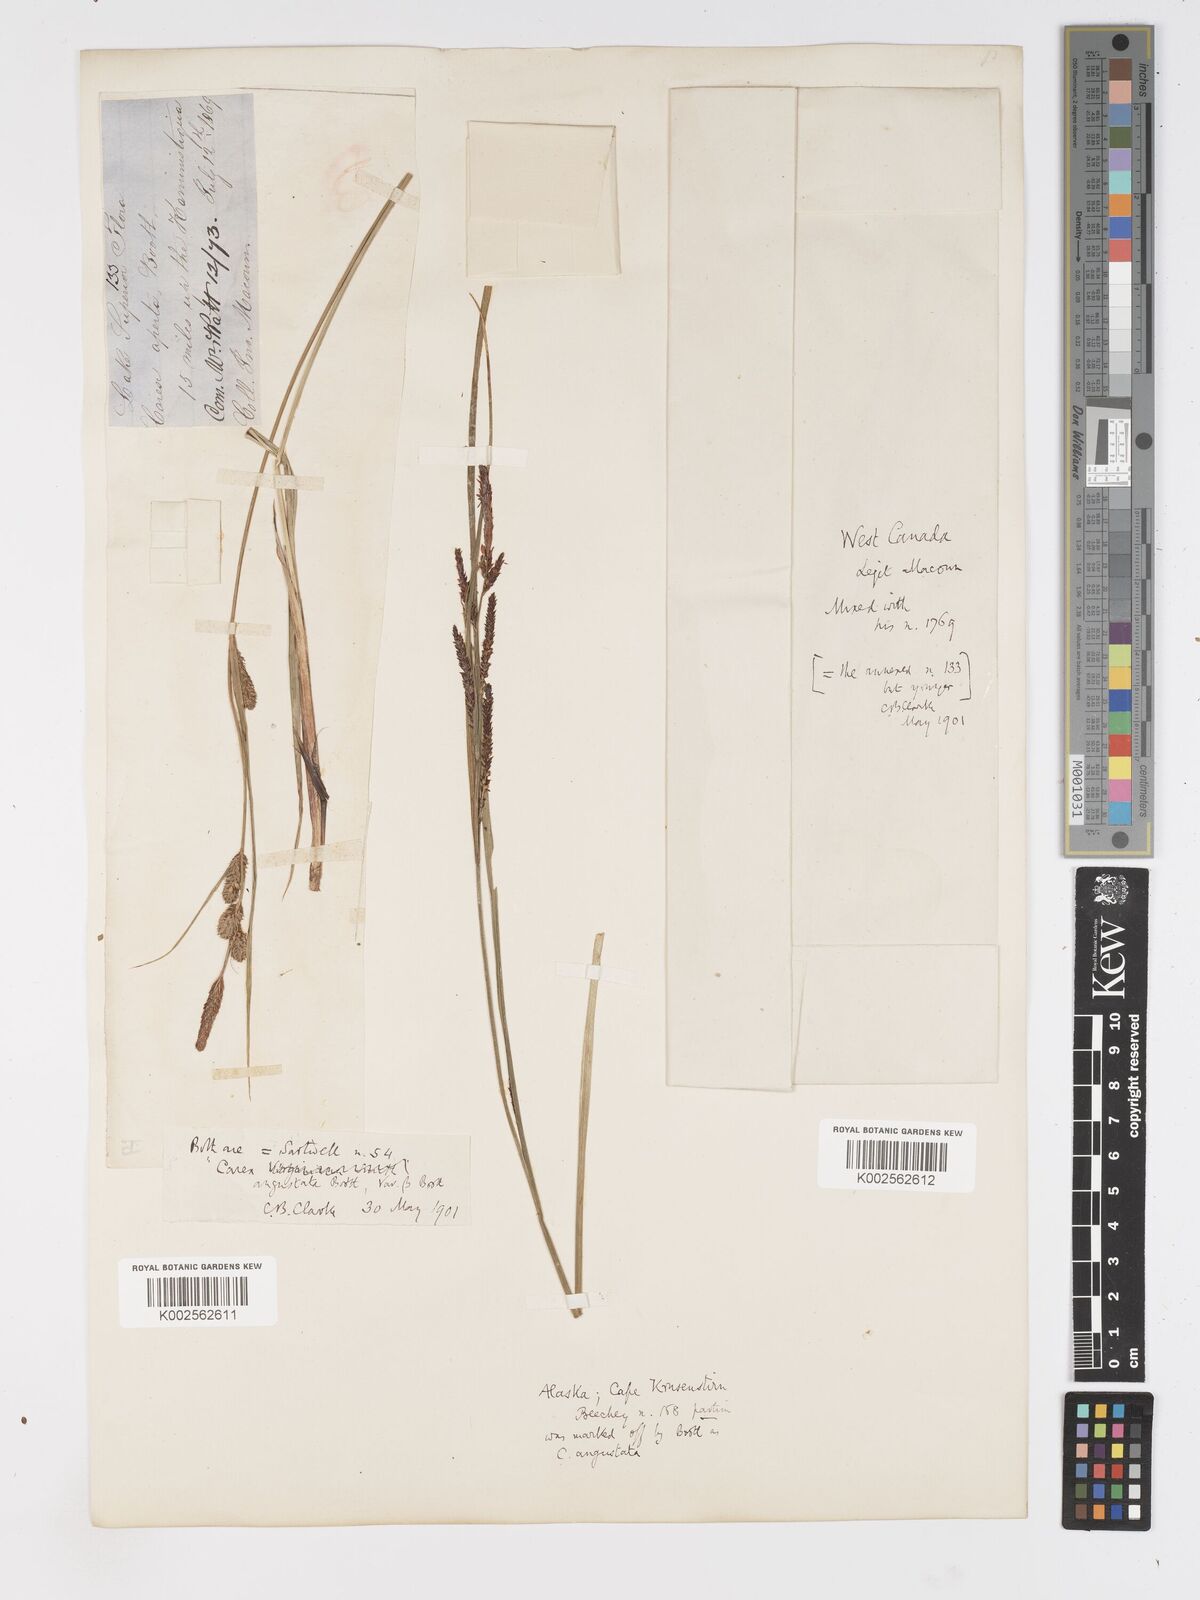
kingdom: Plantae
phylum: Tracheophyta
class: Liliopsida
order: Poales
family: Cyperaceae
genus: Carex
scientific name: Carex stricta
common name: Hummock sedge
